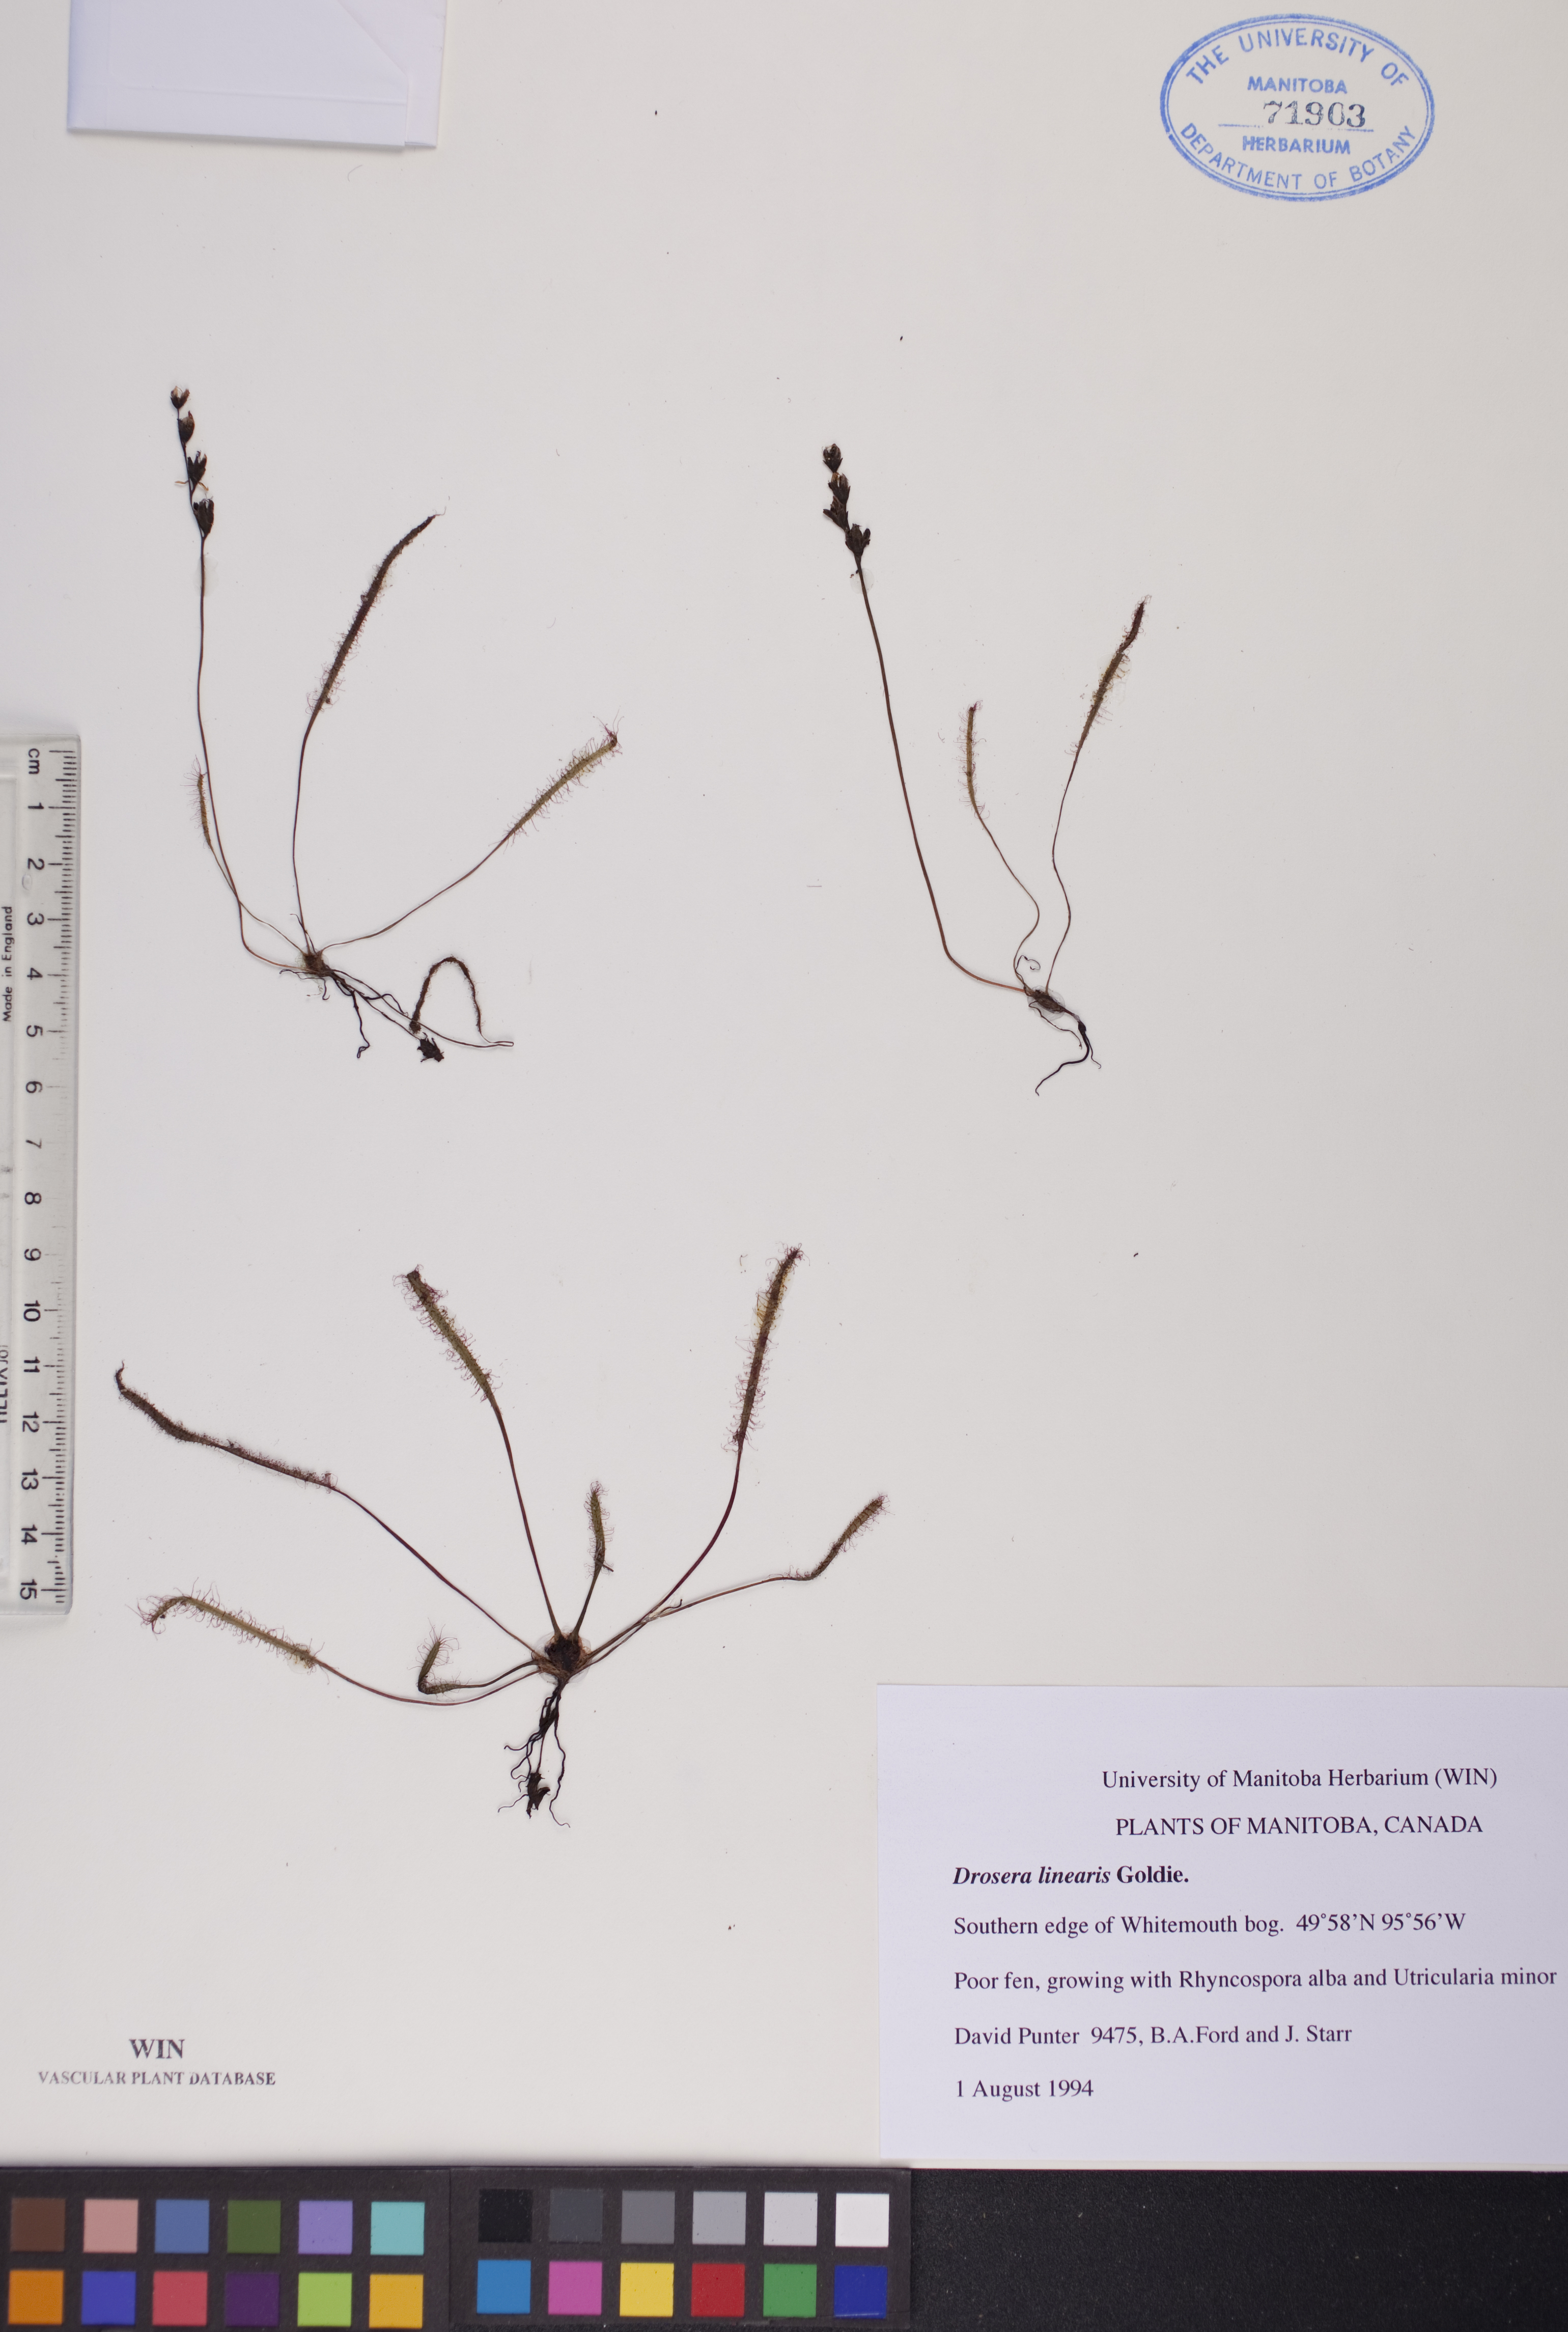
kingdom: Plantae
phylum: Tracheophyta
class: Magnoliopsida
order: Caryophyllales
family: Droseraceae
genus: Drosera
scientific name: Drosera linearis
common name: Linear-leaved sundew
